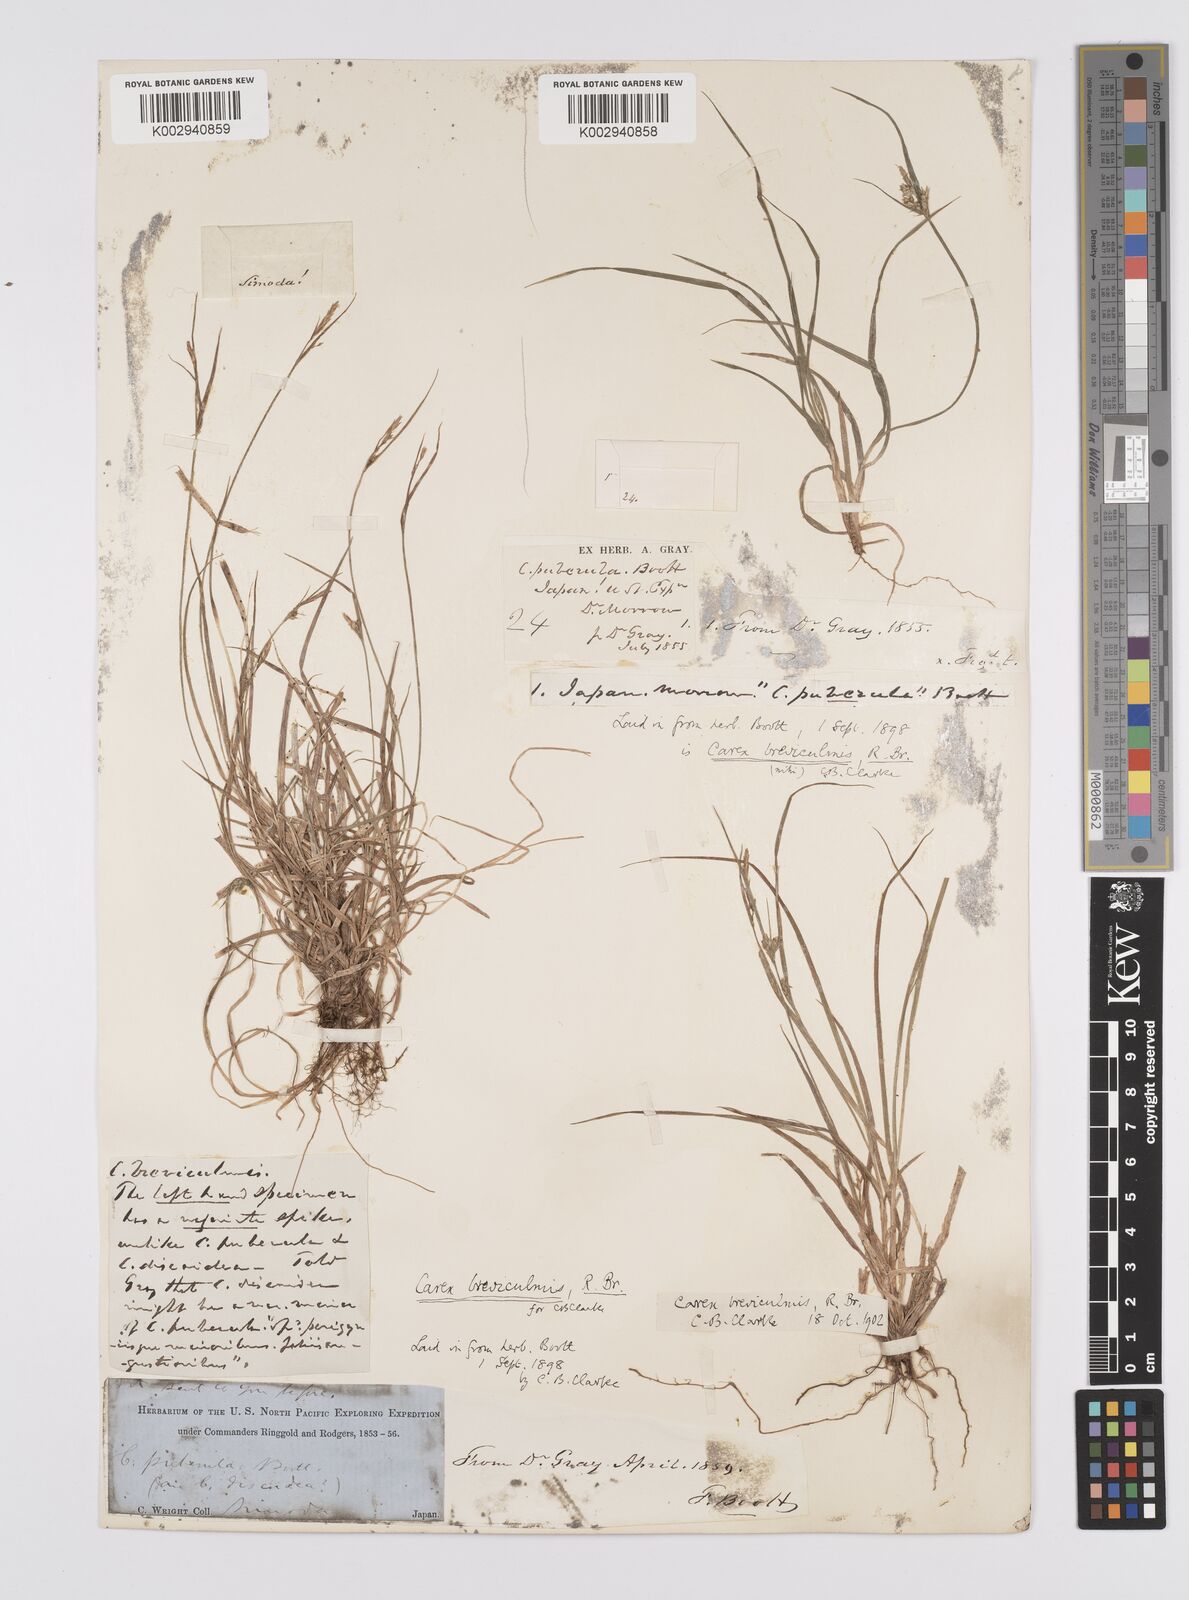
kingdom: Plantae
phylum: Tracheophyta
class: Liliopsida
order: Poales
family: Cyperaceae
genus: Carex
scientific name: Carex breviculmis
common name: Asian shortstem sedge
